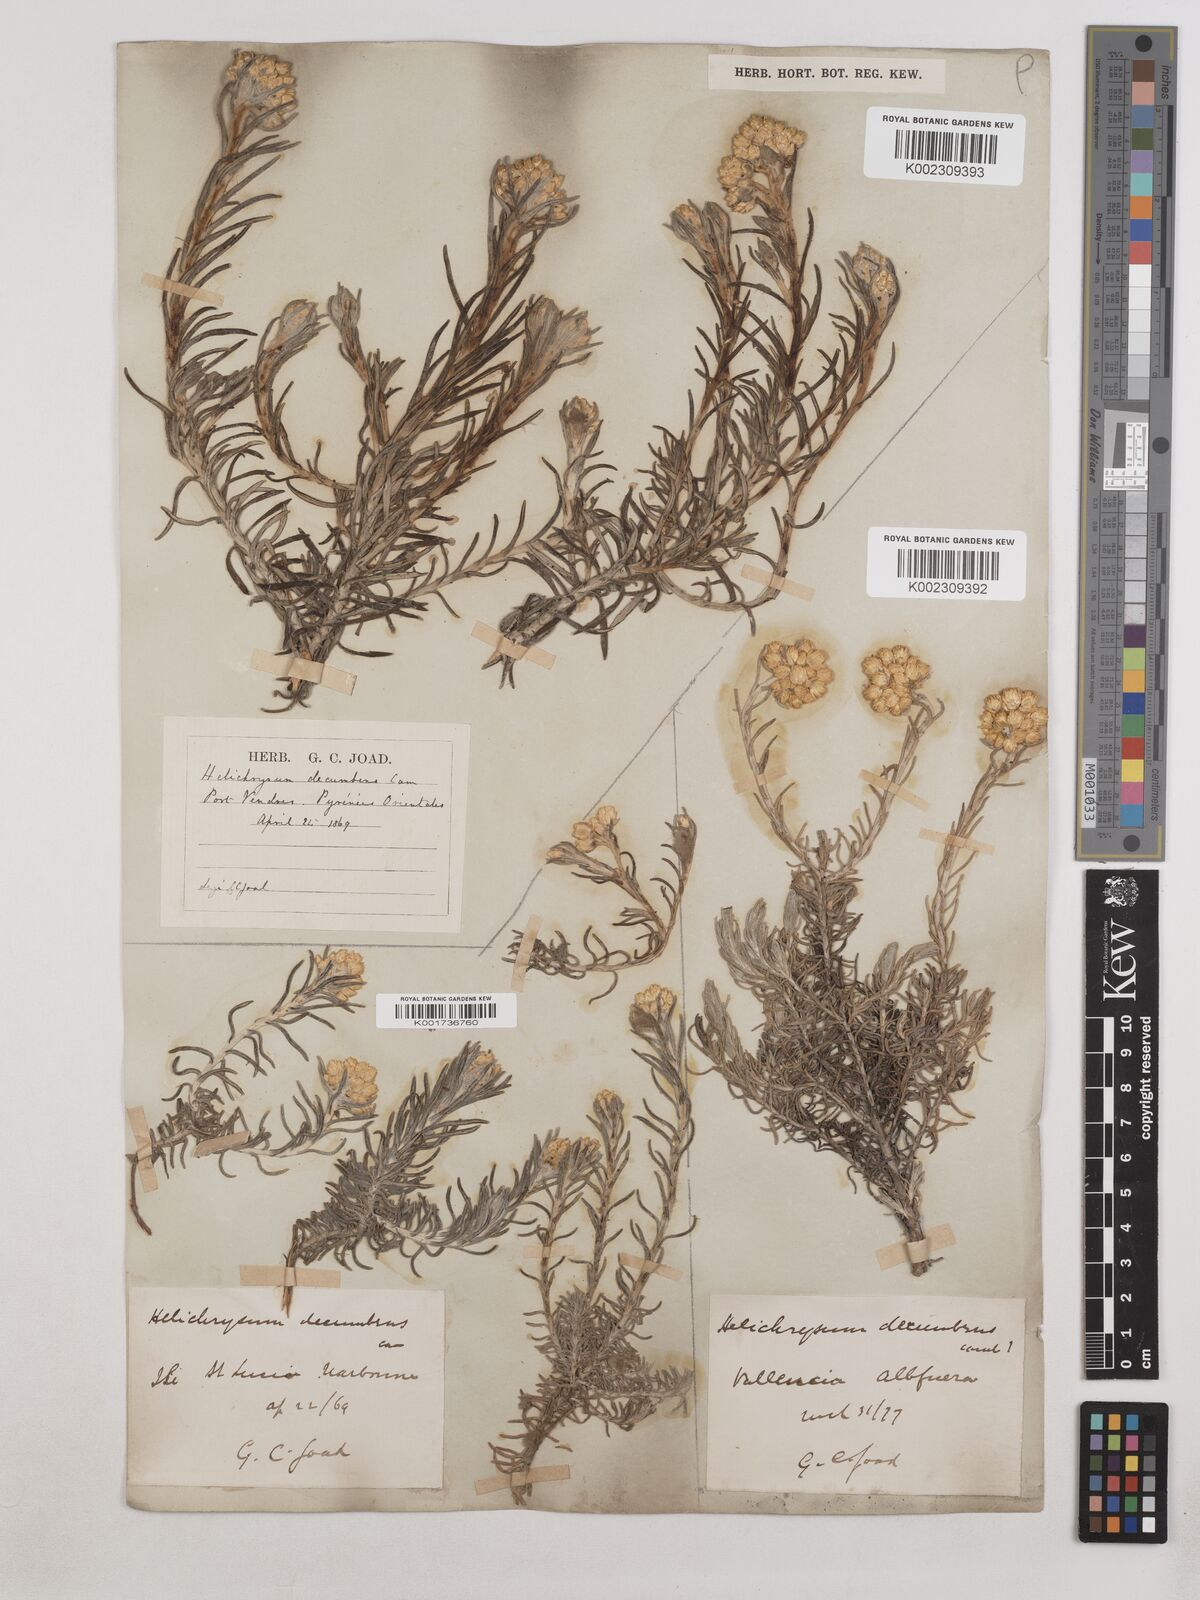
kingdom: Plantae
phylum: Tracheophyta
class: Magnoliopsida
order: Asterales
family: Asteraceae
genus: Helichrysum
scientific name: Helichrysum stoechas
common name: Goldilocks
